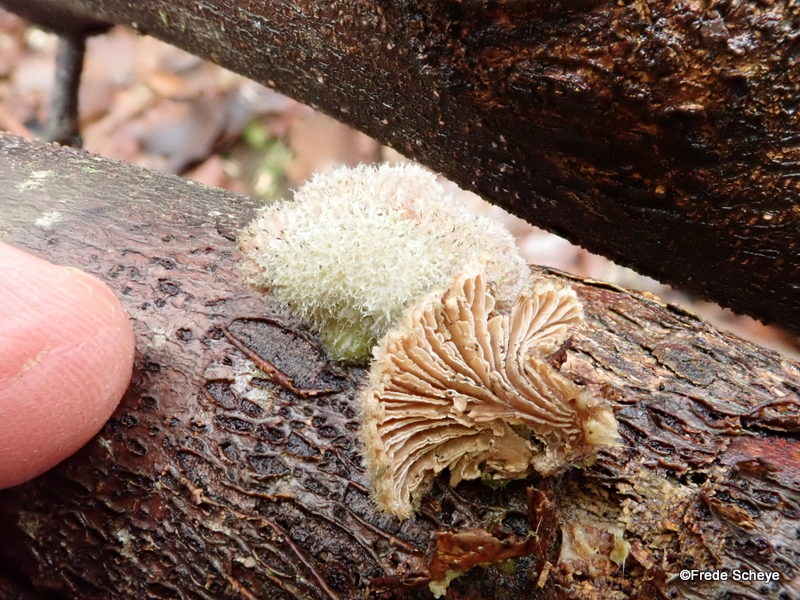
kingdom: Fungi
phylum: Basidiomycota
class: Agaricomycetes
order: Agaricales
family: Schizophyllaceae
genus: Schizophyllum
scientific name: Schizophyllum commune
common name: kløvblad
